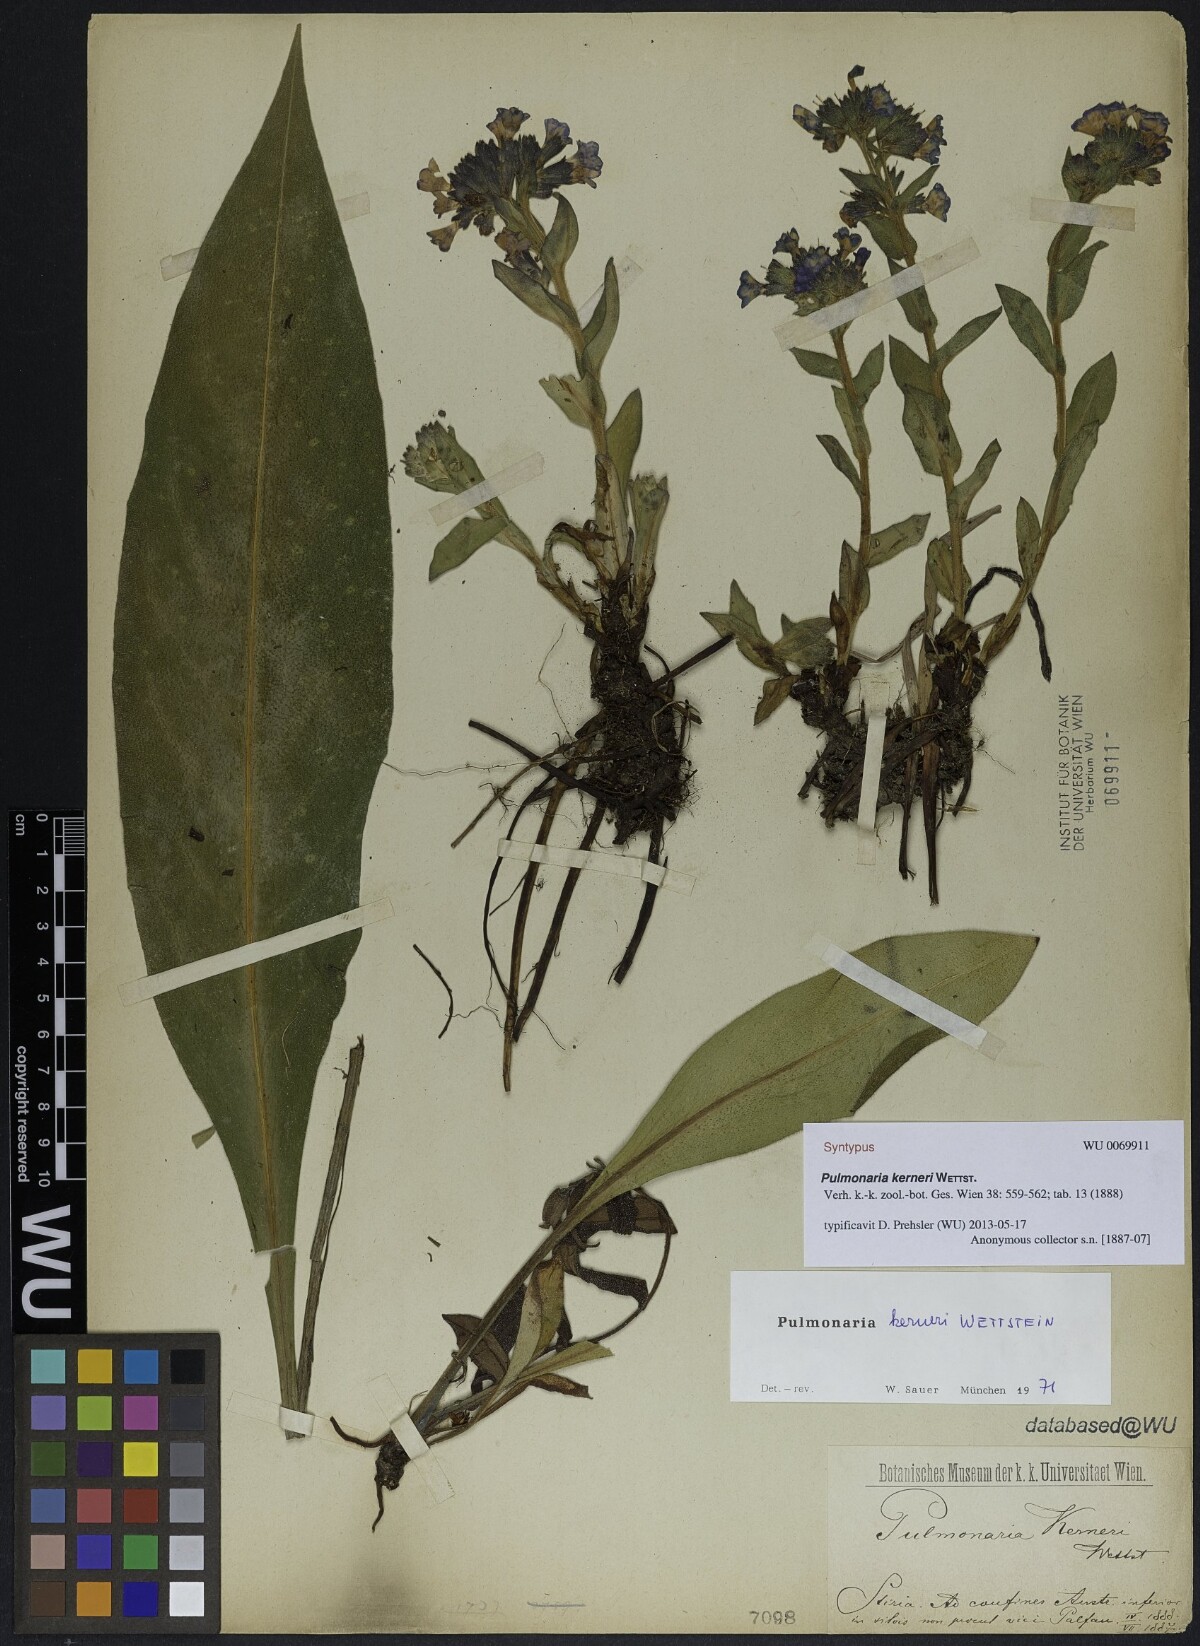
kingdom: Plantae
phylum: Tracheophyta
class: Magnoliopsida
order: Boraginales
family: Boraginaceae
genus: Pulmonaria
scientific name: Pulmonaria kerneri
